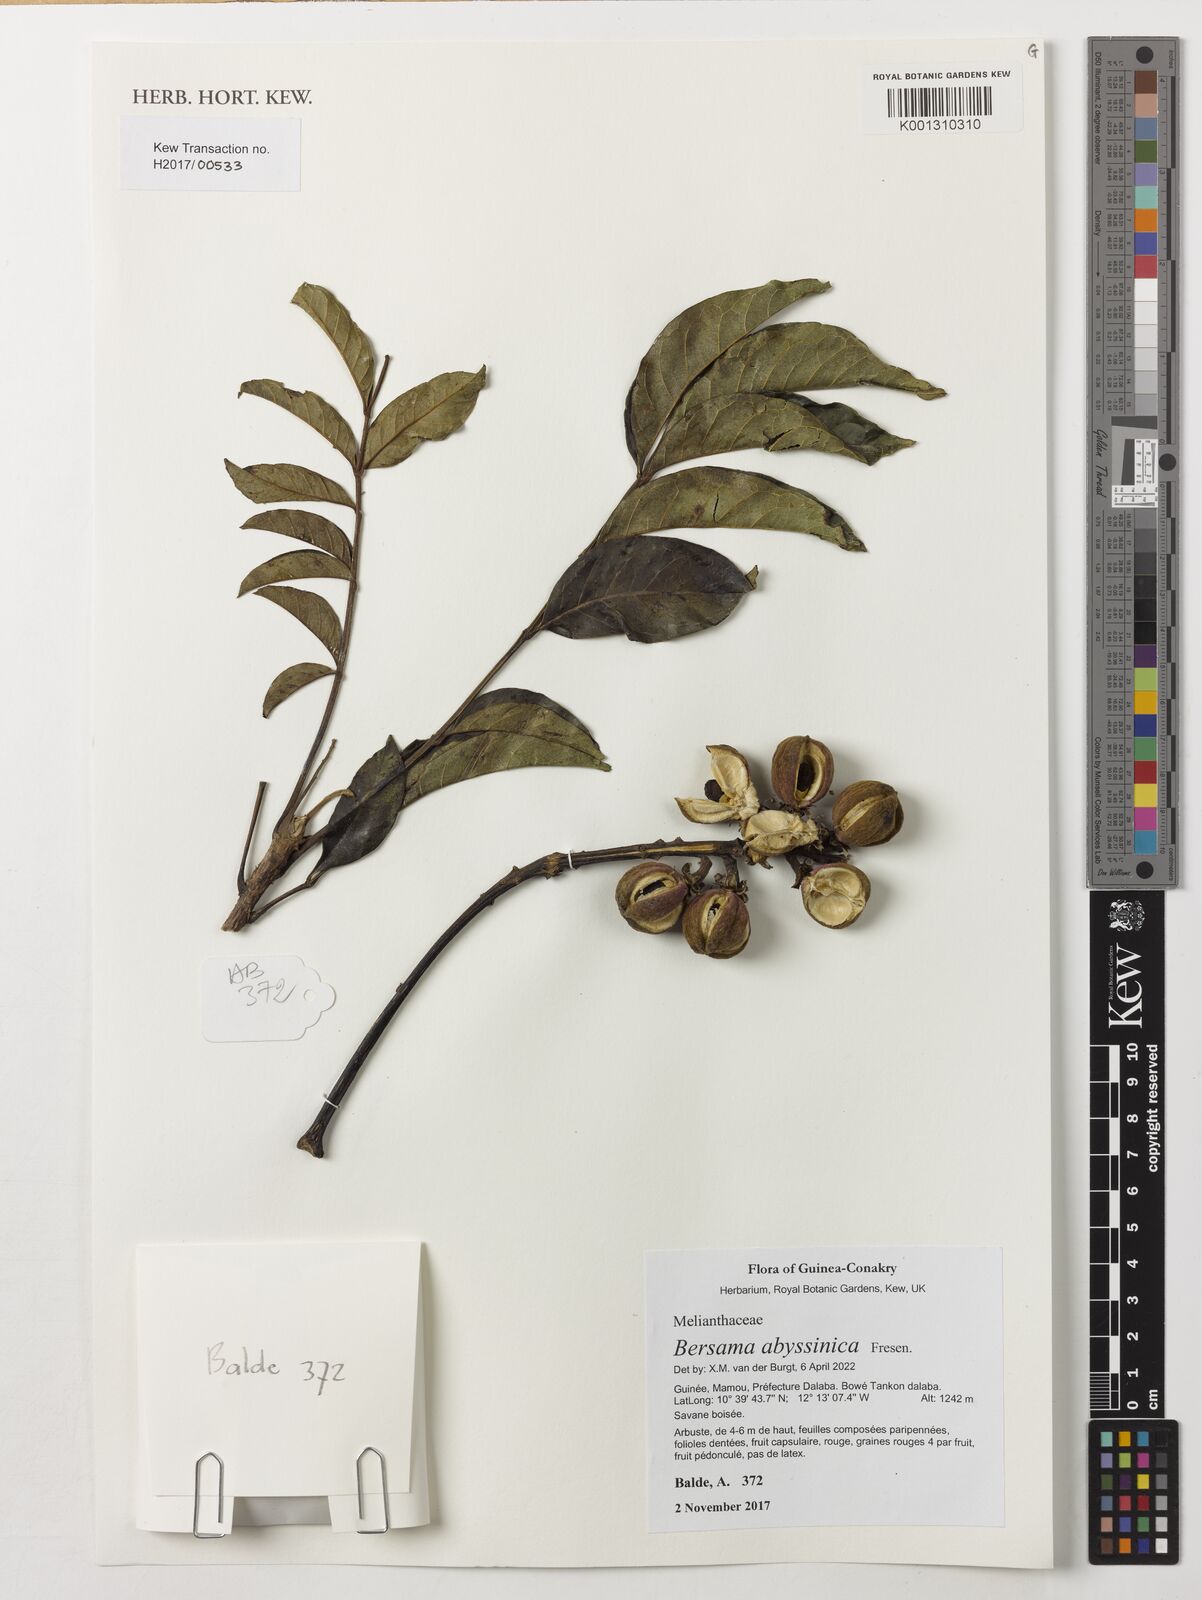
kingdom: Plantae
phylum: Tracheophyta
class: Magnoliopsida
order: Geraniales
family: Melianthaceae
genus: Bersama
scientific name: Bersama abyssinica
